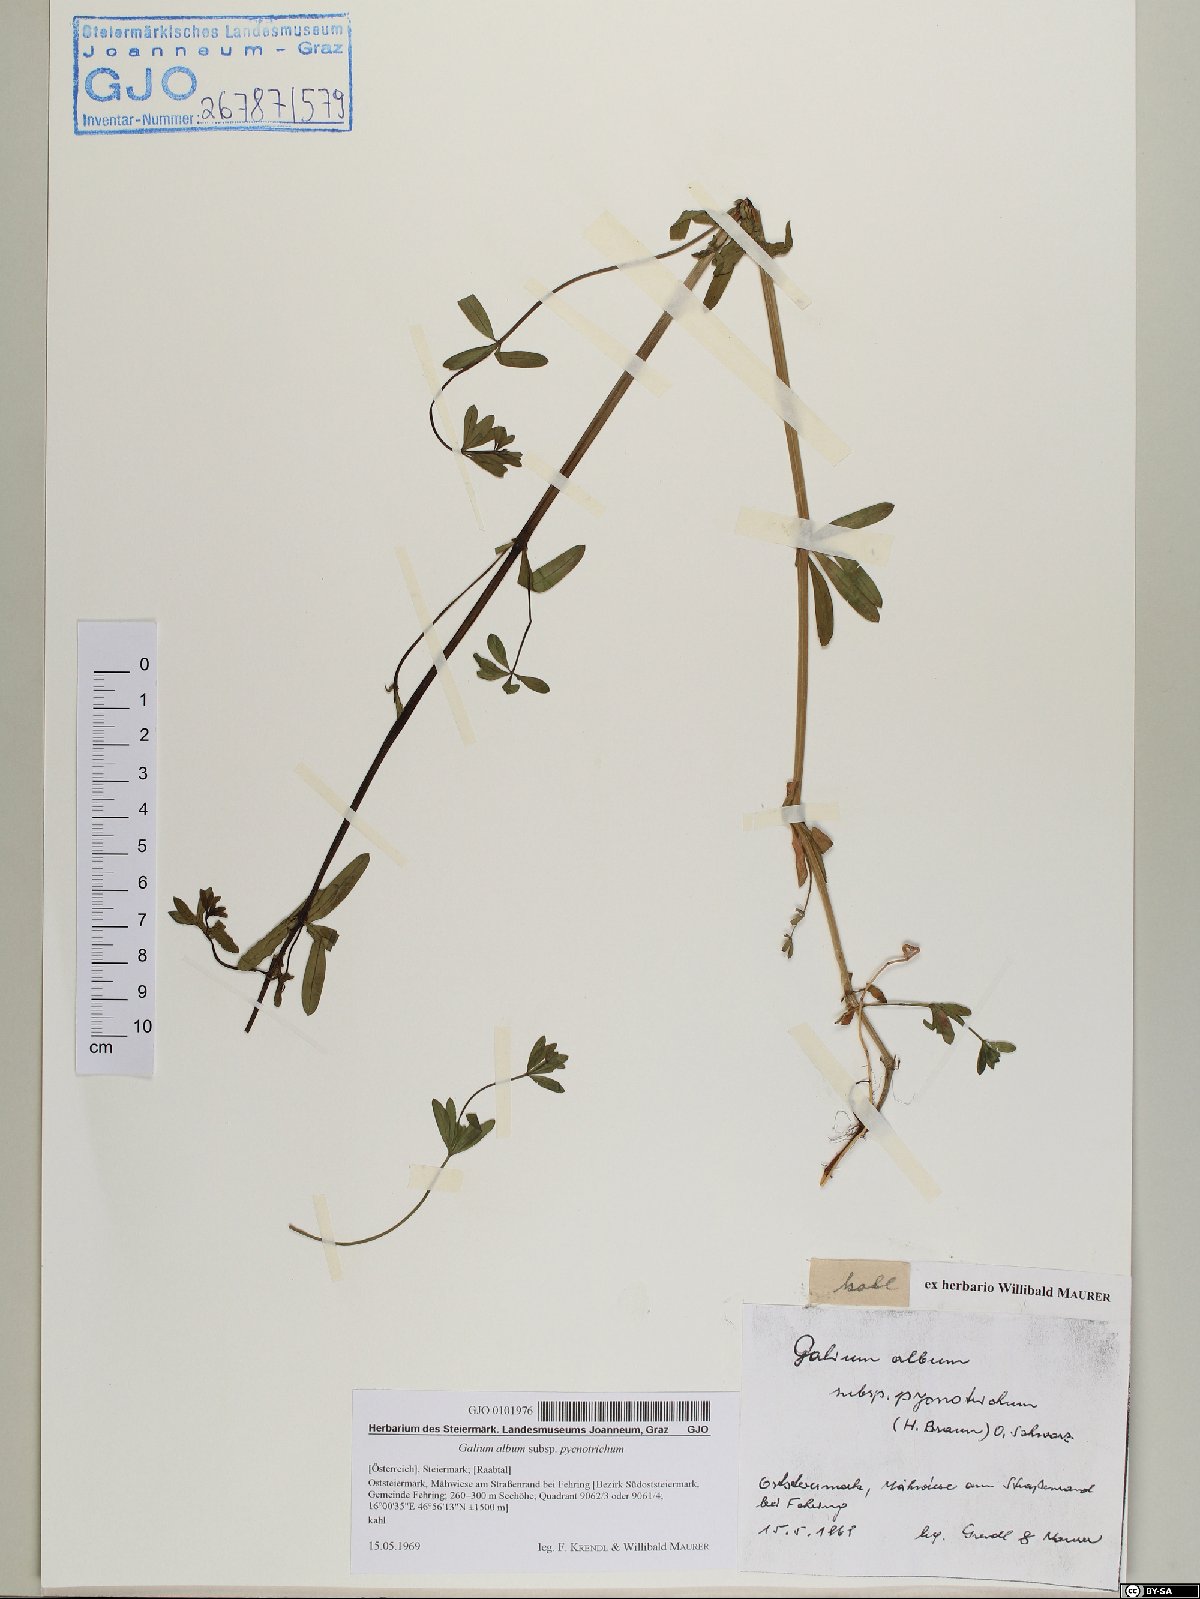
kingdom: Plantae
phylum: Tracheophyta
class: Magnoliopsida
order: Gentianales
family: Rubiaceae
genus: Galium
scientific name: Galium album
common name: White bedstraw
